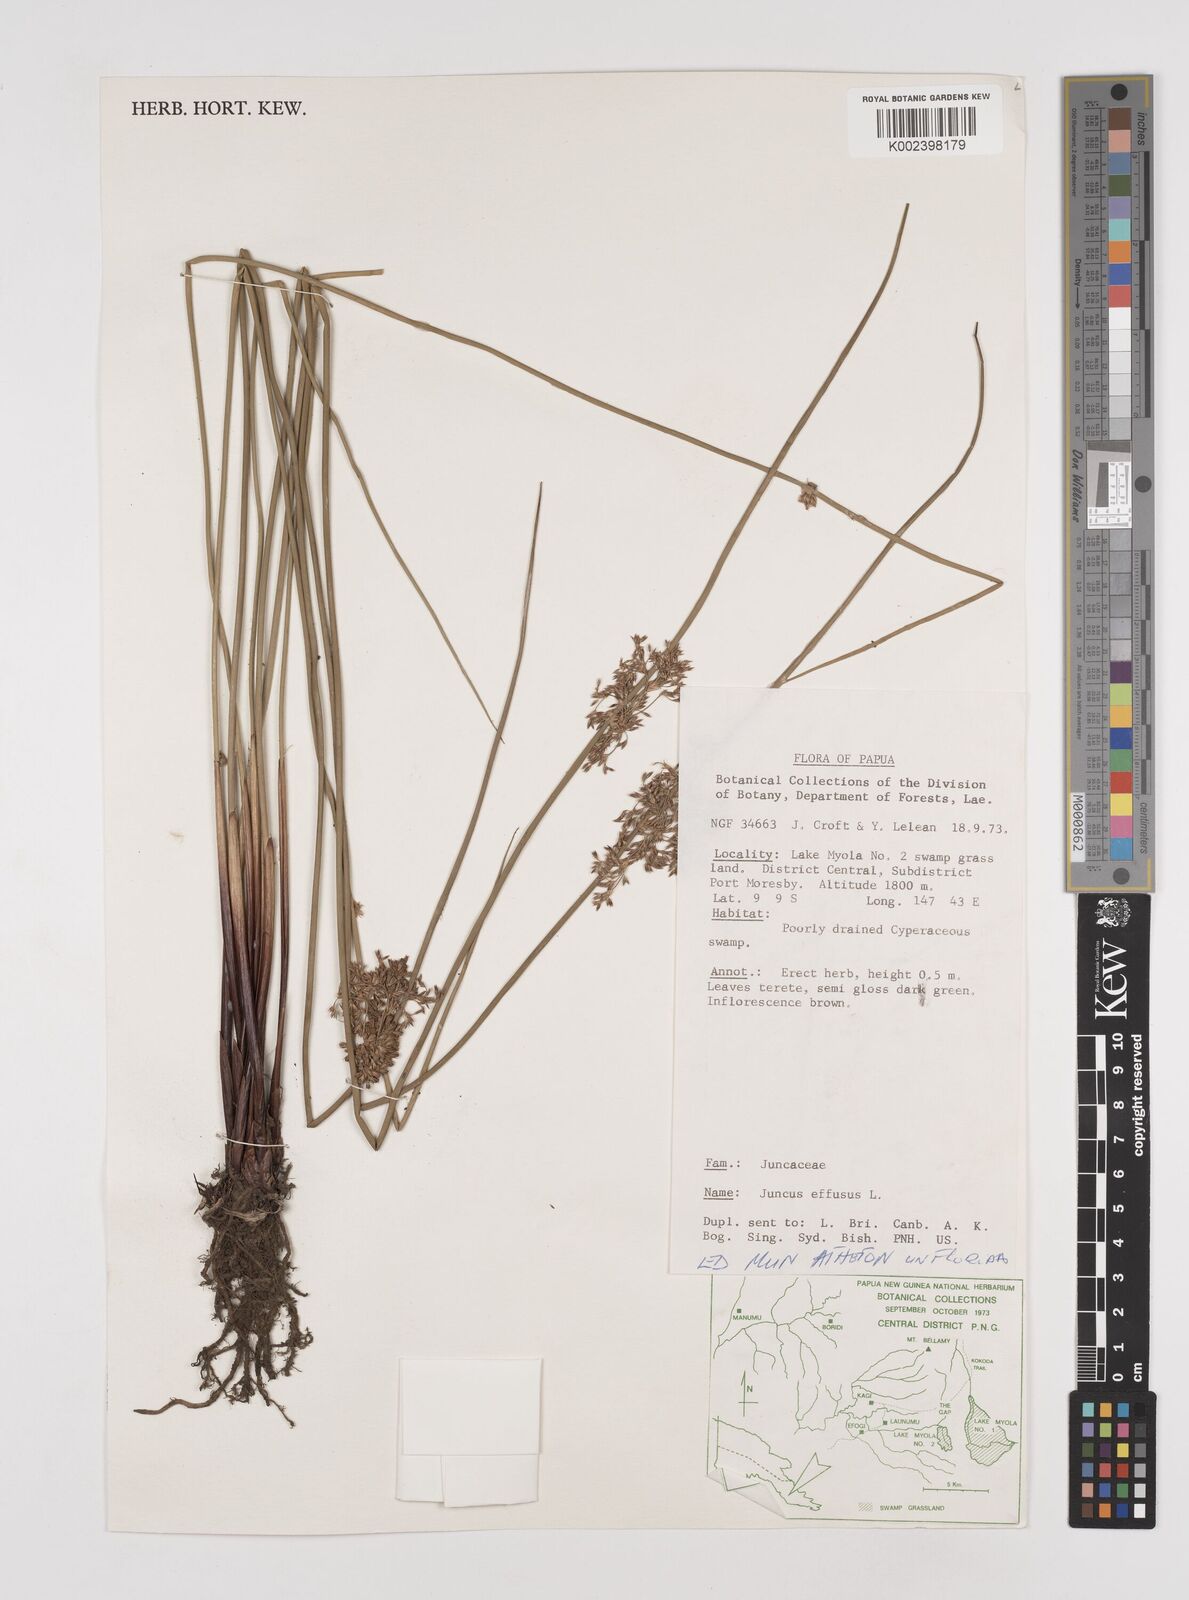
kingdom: Plantae
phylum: Tracheophyta
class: Liliopsida
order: Poales
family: Juncaceae
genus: Juncus
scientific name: Juncus decipiens
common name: Lamp rush
